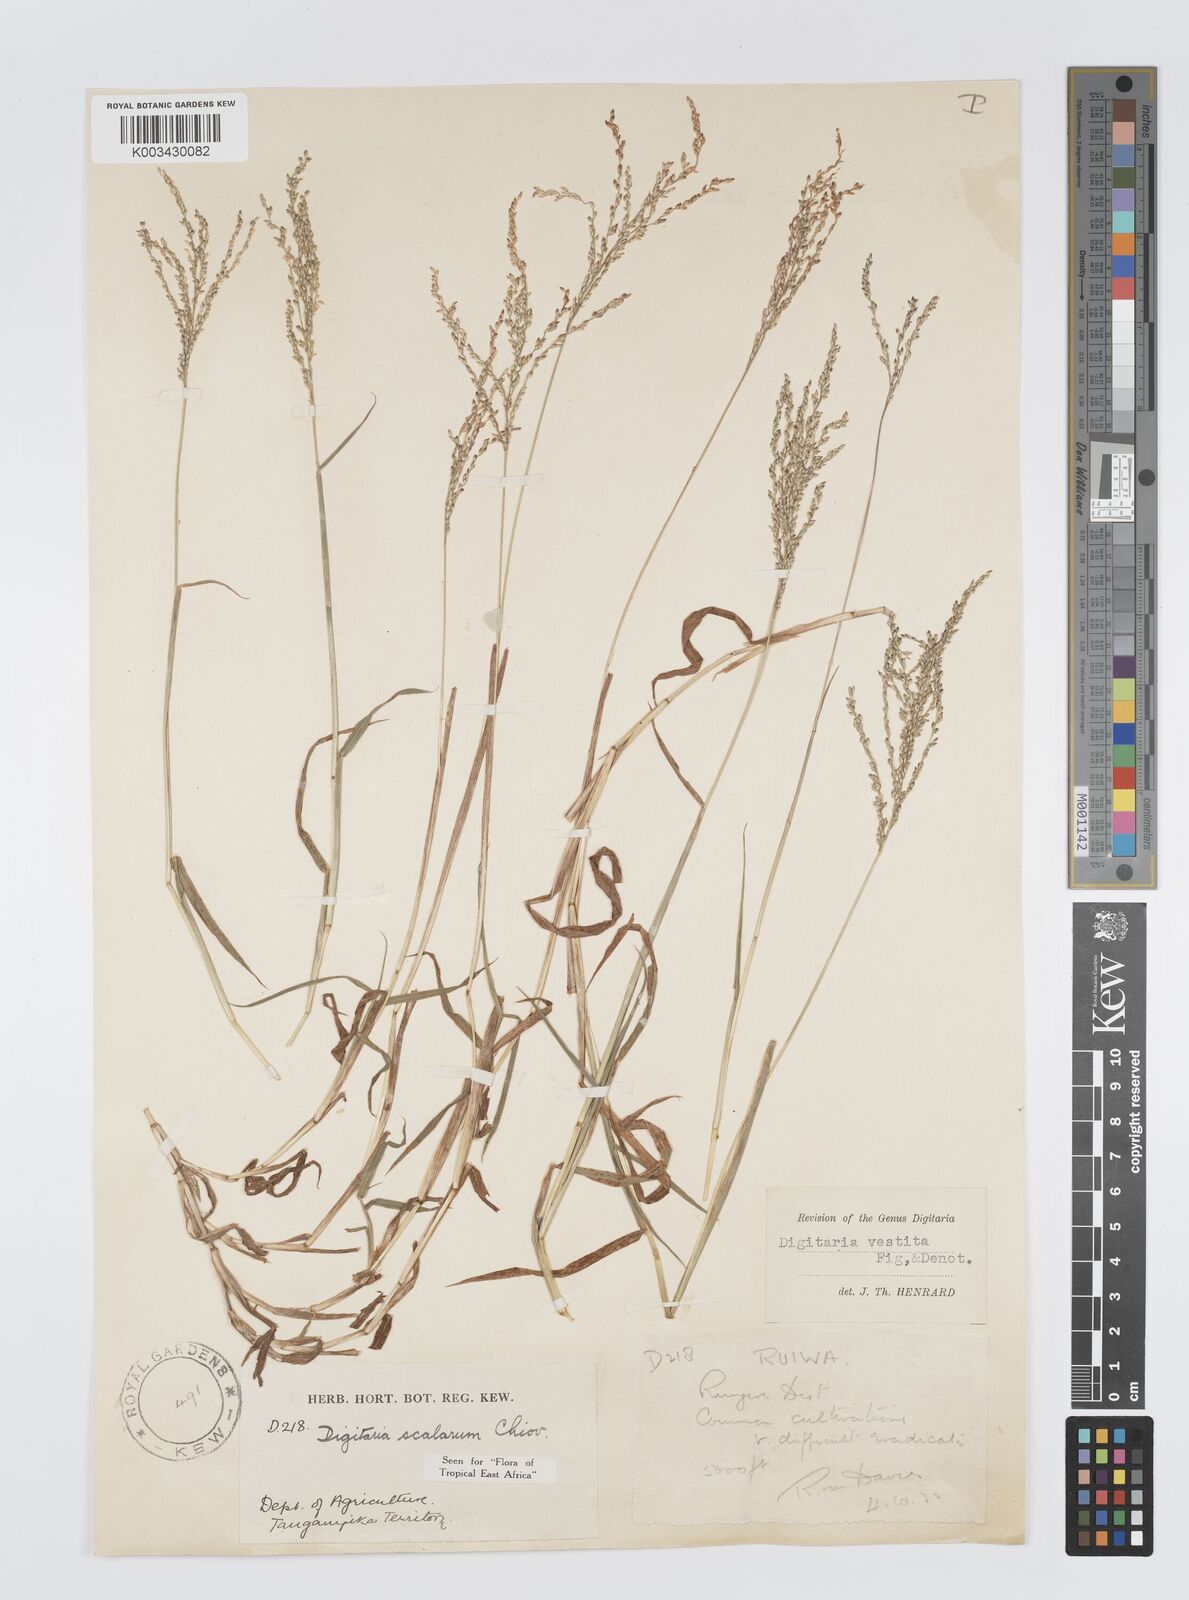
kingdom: Plantae
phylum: Tracheophyta
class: Liliopsida
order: Poales
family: Poaceae
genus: Digitaria
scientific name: Digitaria abyssinica
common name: African couchgrass
